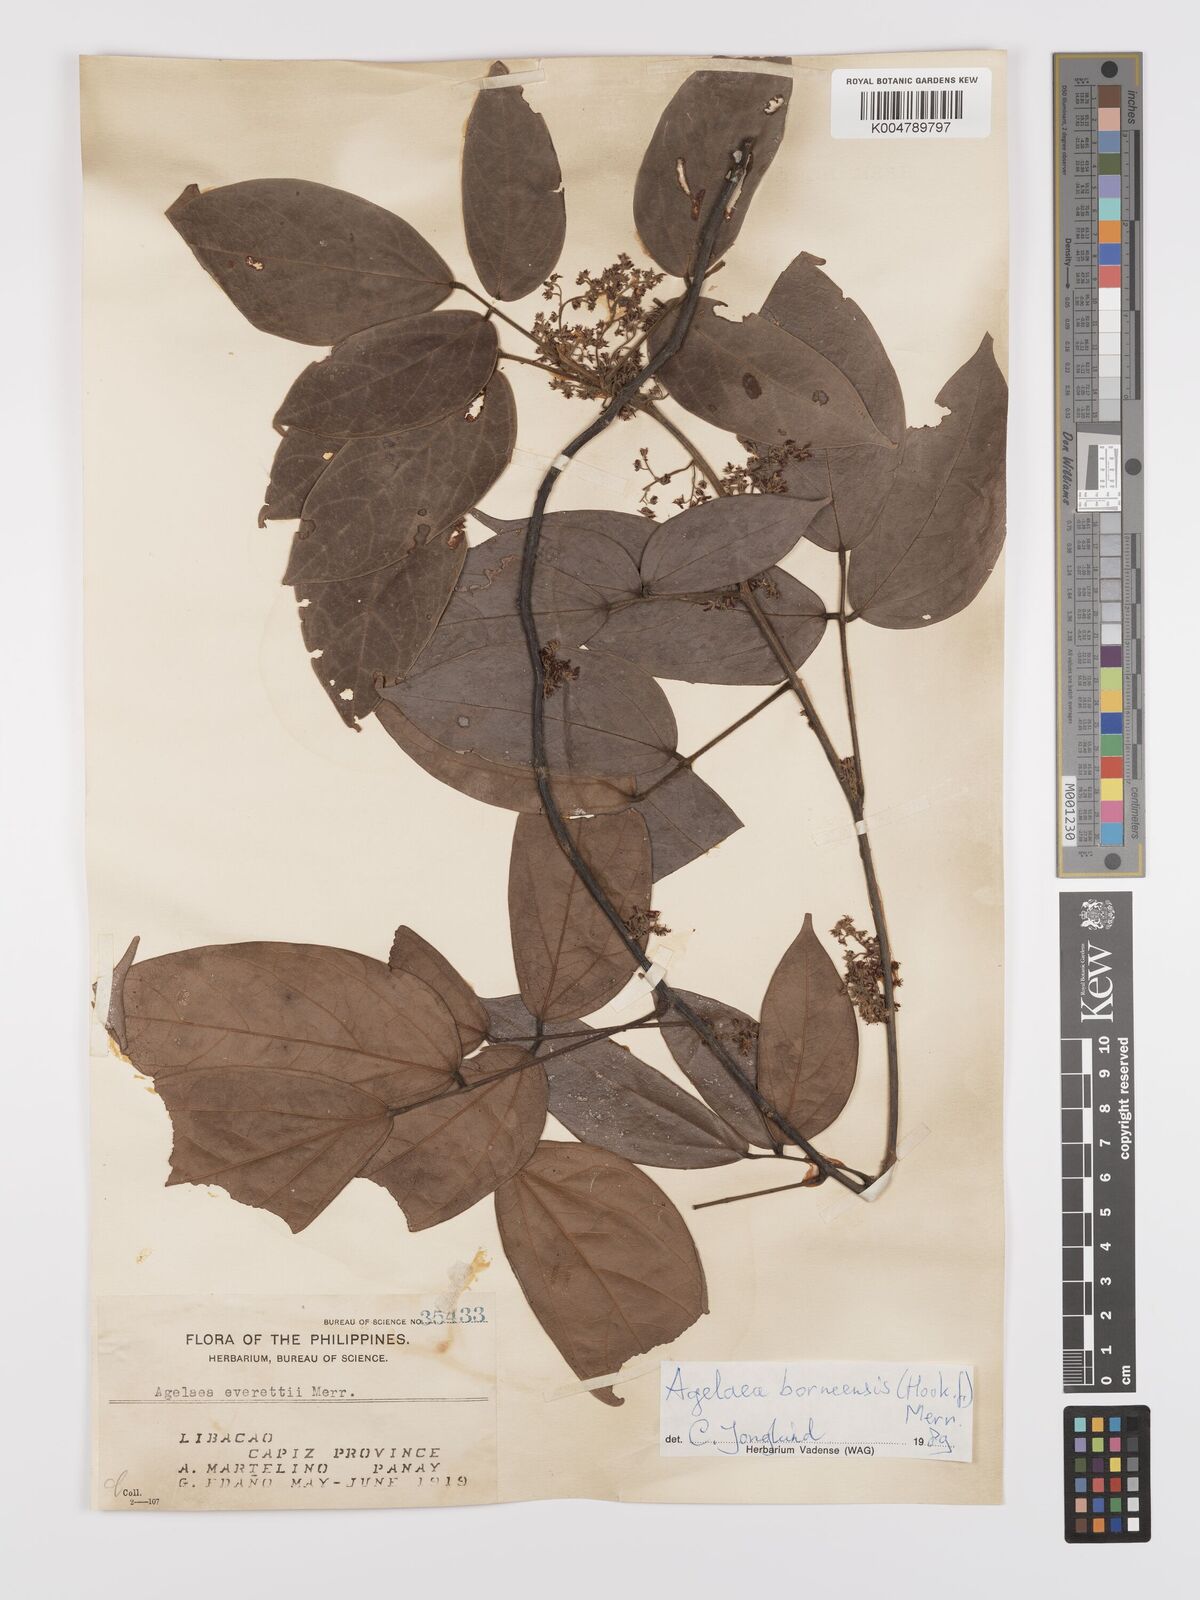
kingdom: Plantae
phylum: Tracheophyta
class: Magnoliopsida
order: Oxalidales
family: Connaraceae
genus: Agelaea
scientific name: Agelaea borneensis
